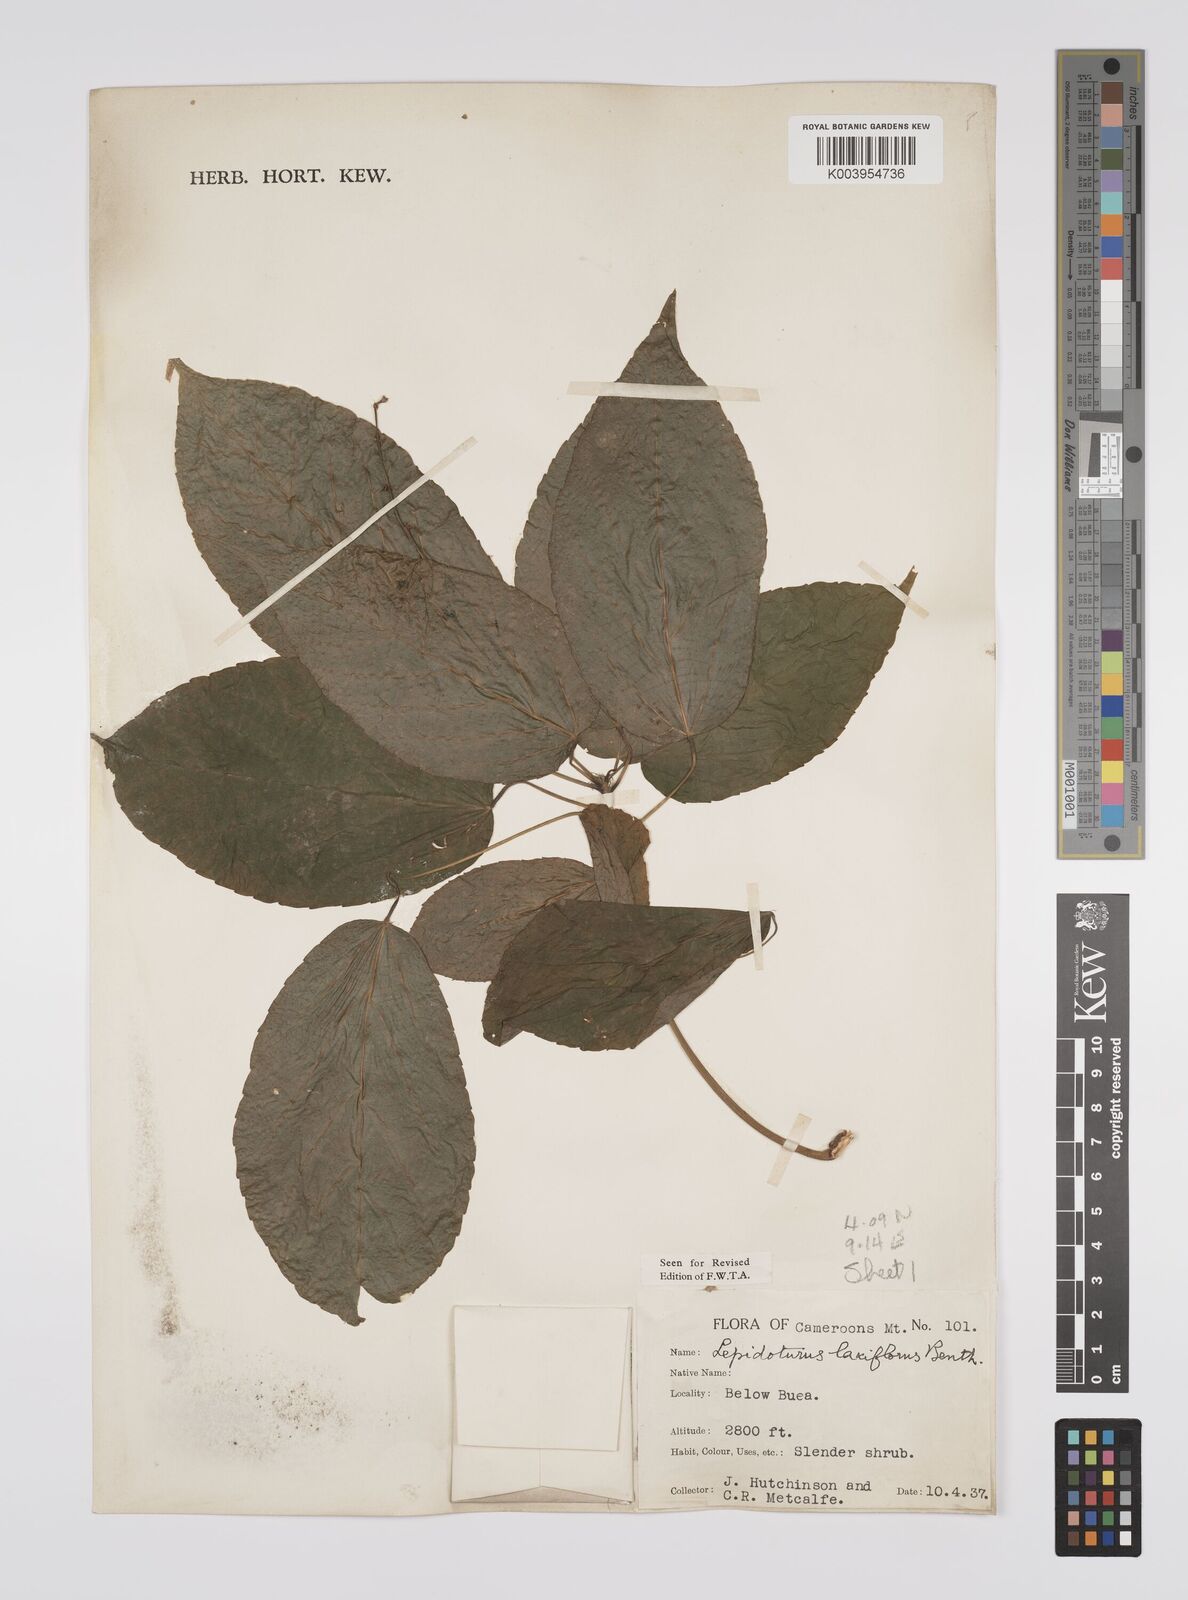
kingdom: Plantae
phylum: Tracheophyta
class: Magnoliopsida
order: Malpighiales
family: Euphorbiaceae
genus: Alchornea
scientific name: Alchornea laxiflora
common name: Lowveld bead-string
